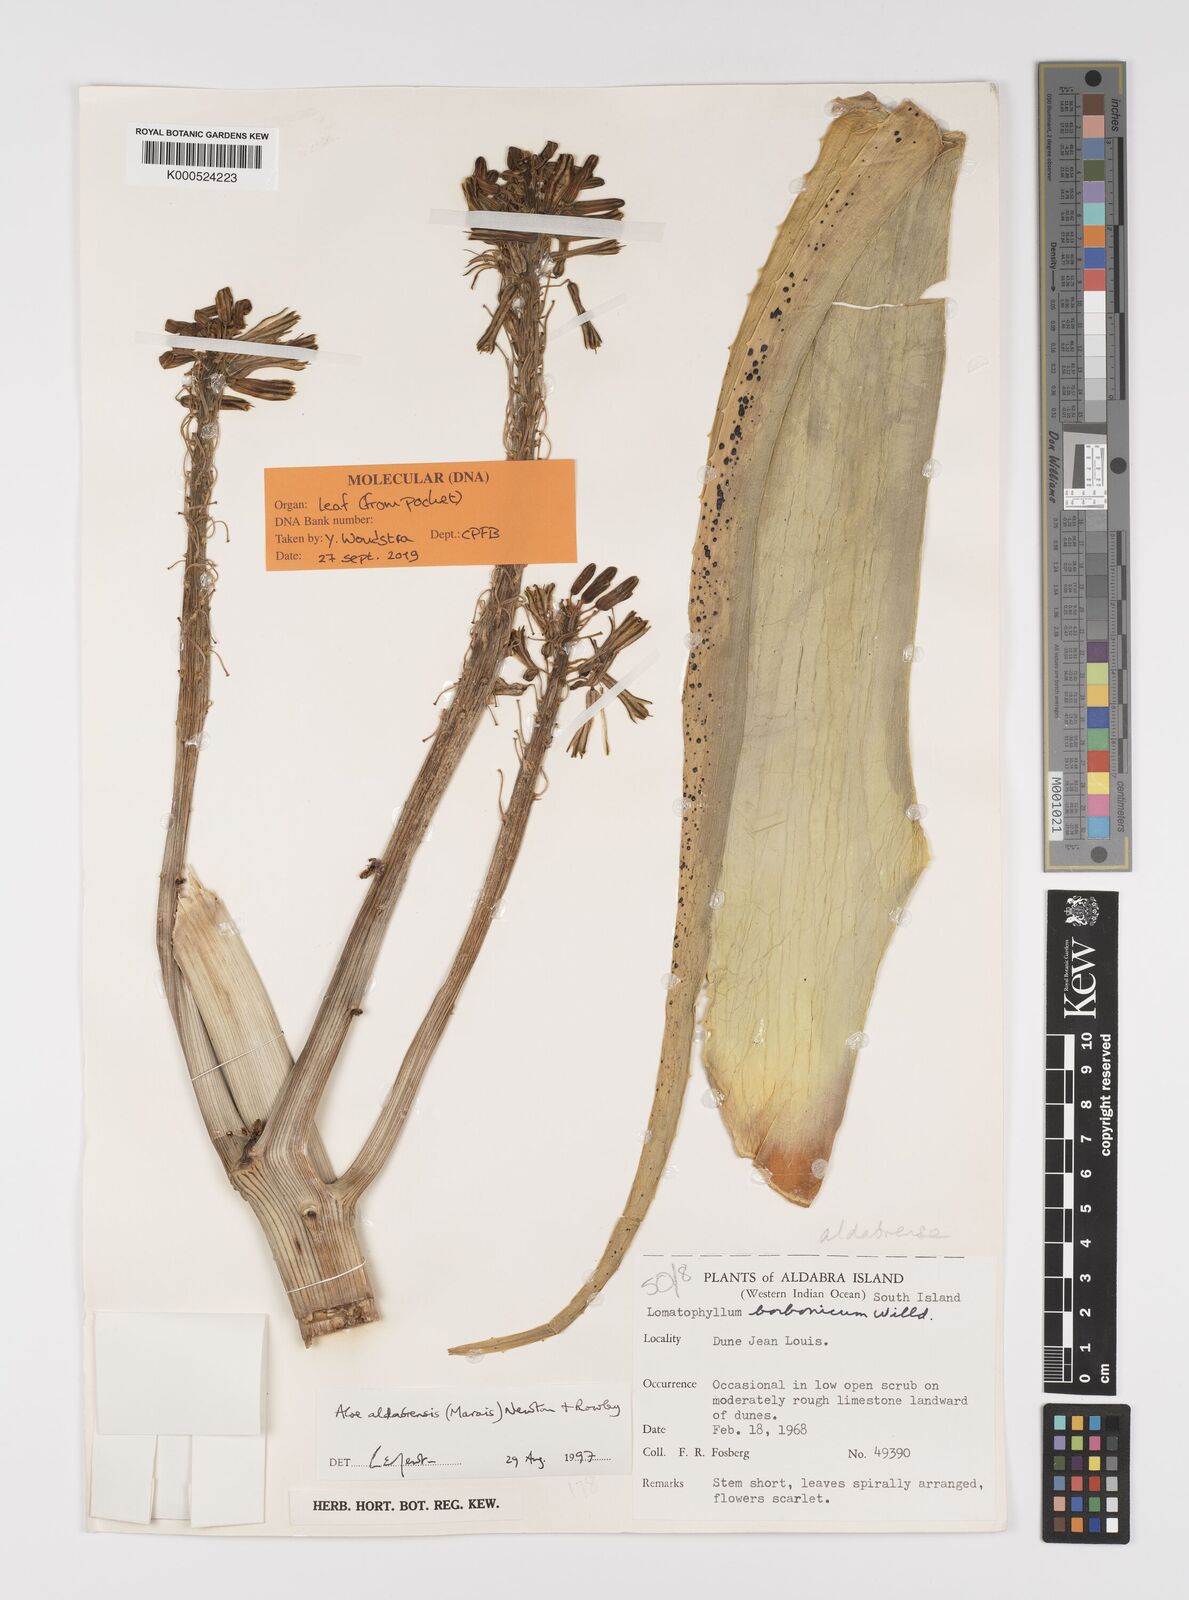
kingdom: Plantae
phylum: Tracheophyta
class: Liliopsida
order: Asparagales
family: Asphodelaceae
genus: Aloe
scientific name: Aloe aldabrensis
